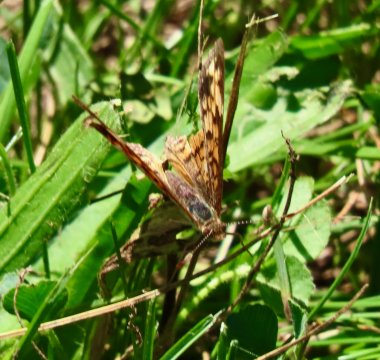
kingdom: Animalia
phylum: Arthropoda
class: Insecta
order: Lepidoptera
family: Nymphalidae
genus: Phyciodes
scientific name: Phyciodes tharos
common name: Pearl Crescent
